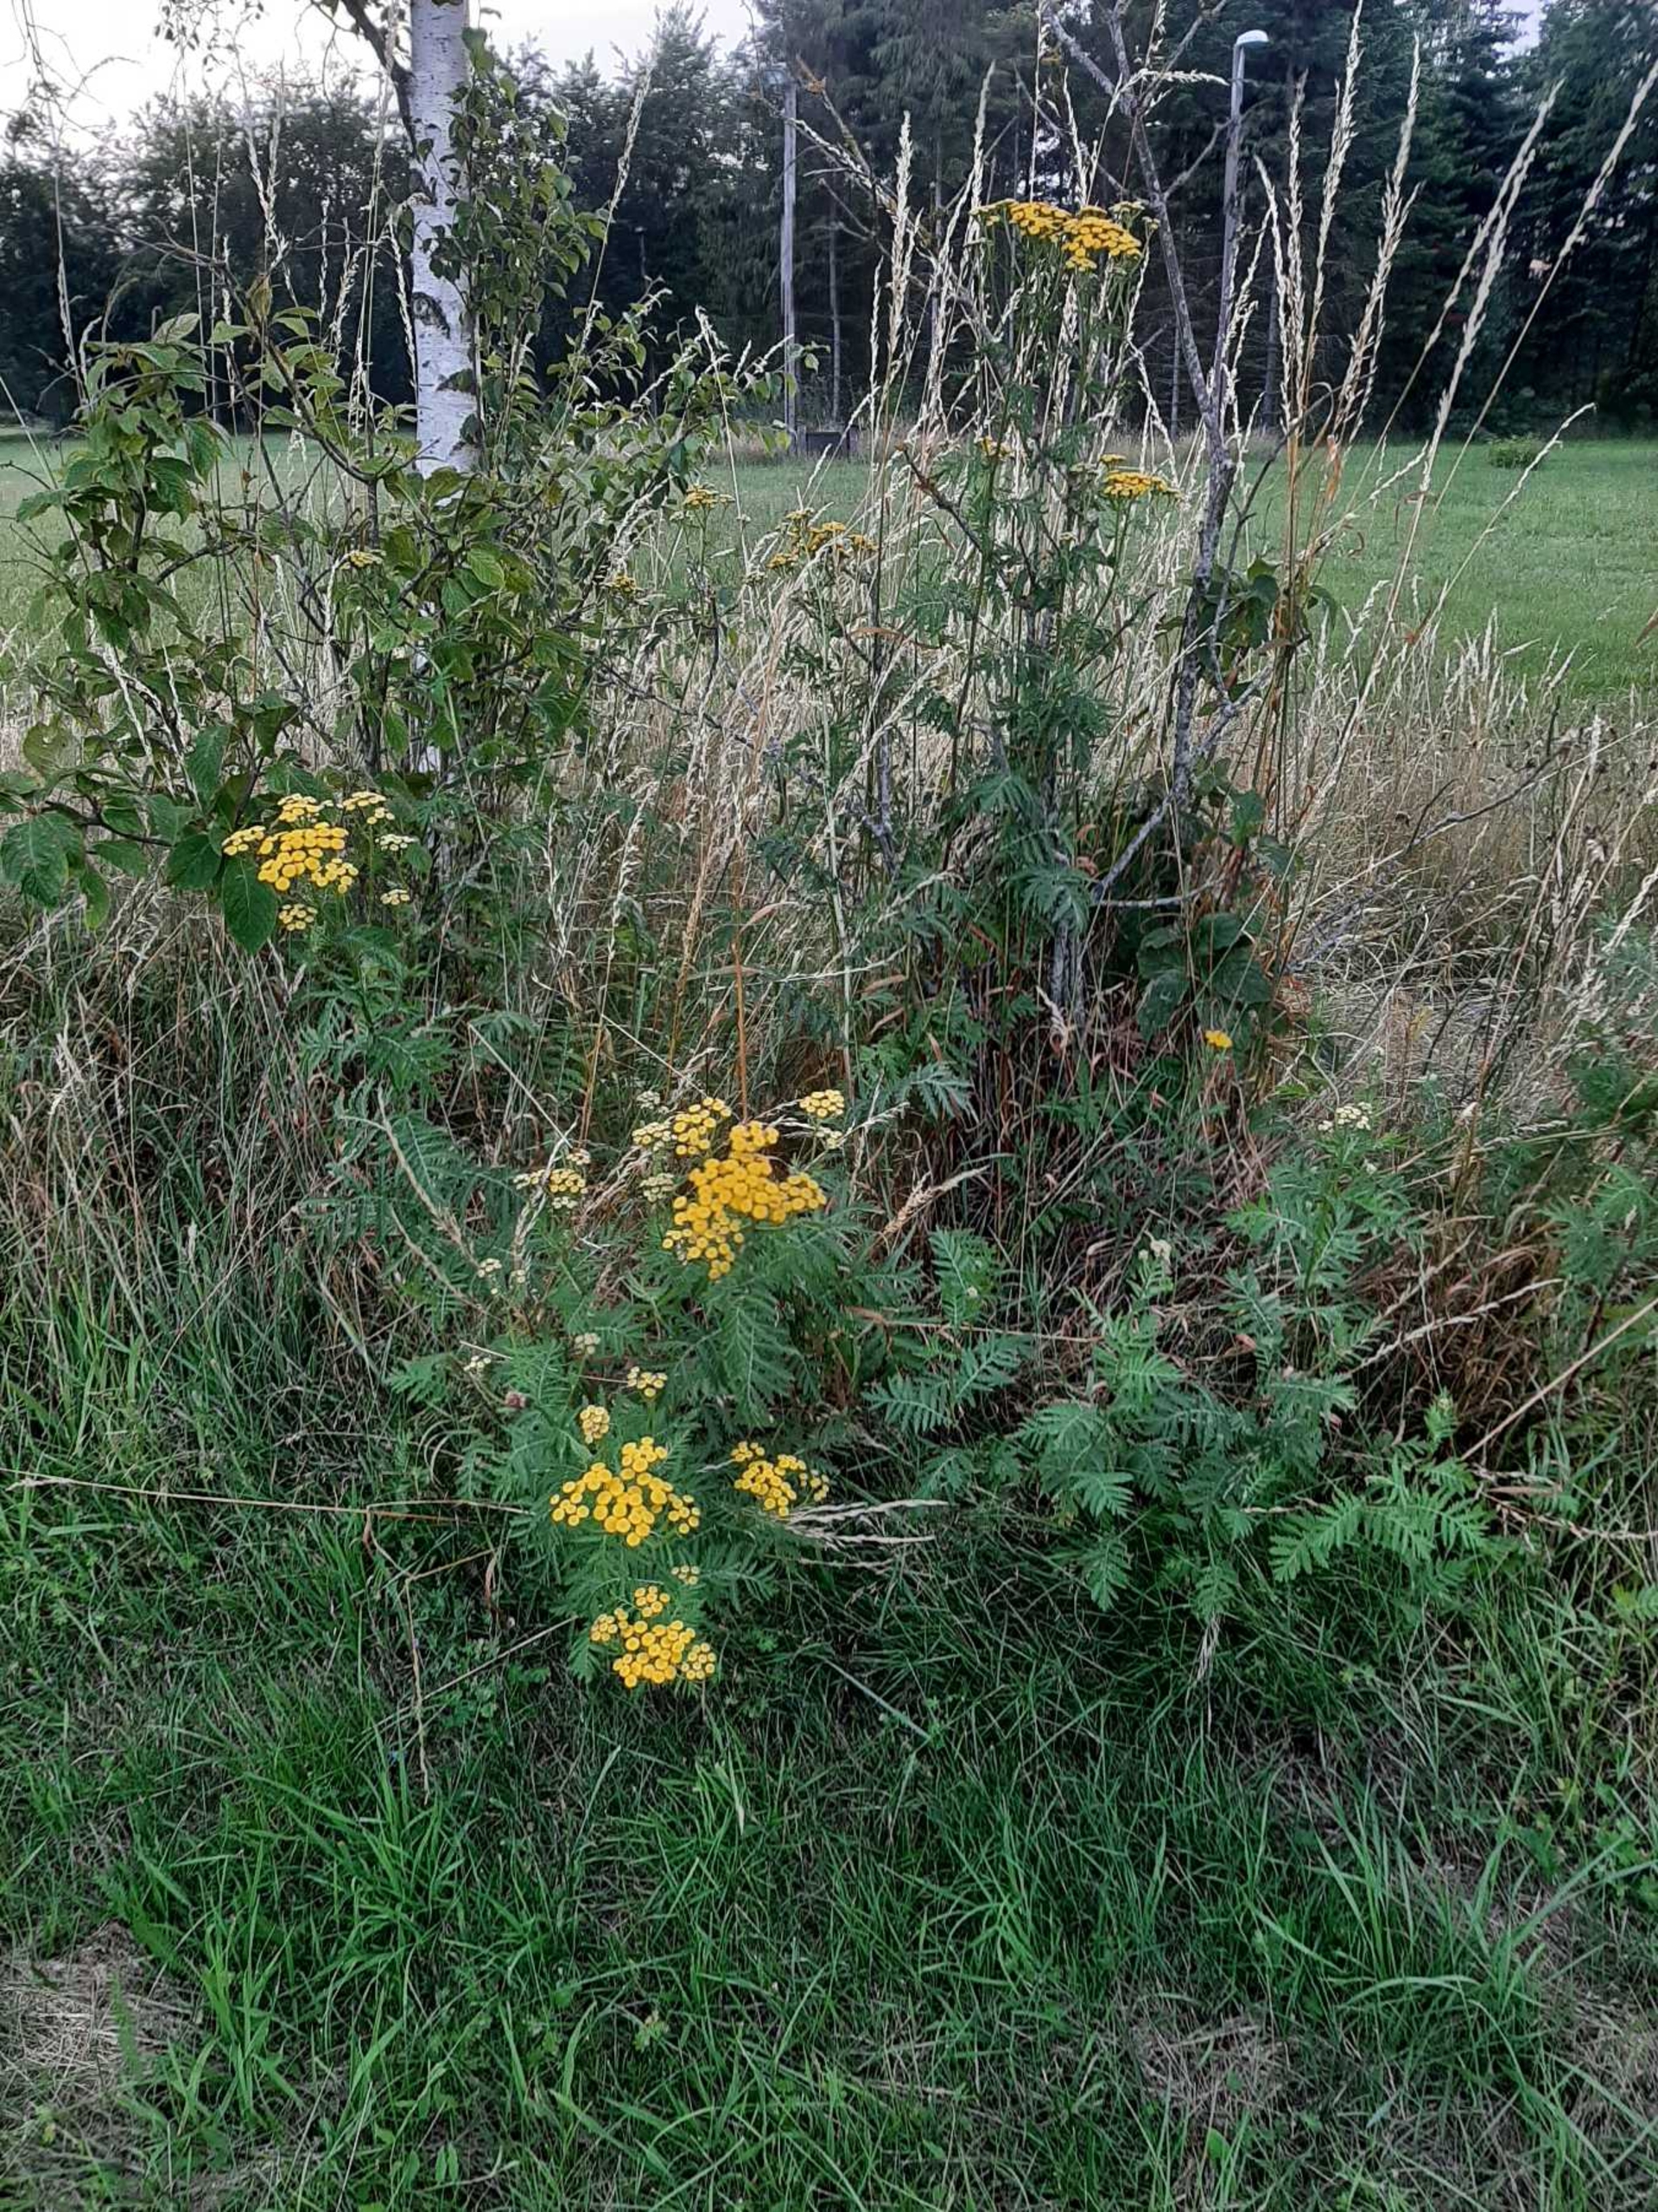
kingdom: Plantae
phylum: Tracheophyta
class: Magnoliopsida
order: Asterales
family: Asteraceae
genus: Tanacetum
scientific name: Tanacetum vulgare
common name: Rejnfan
